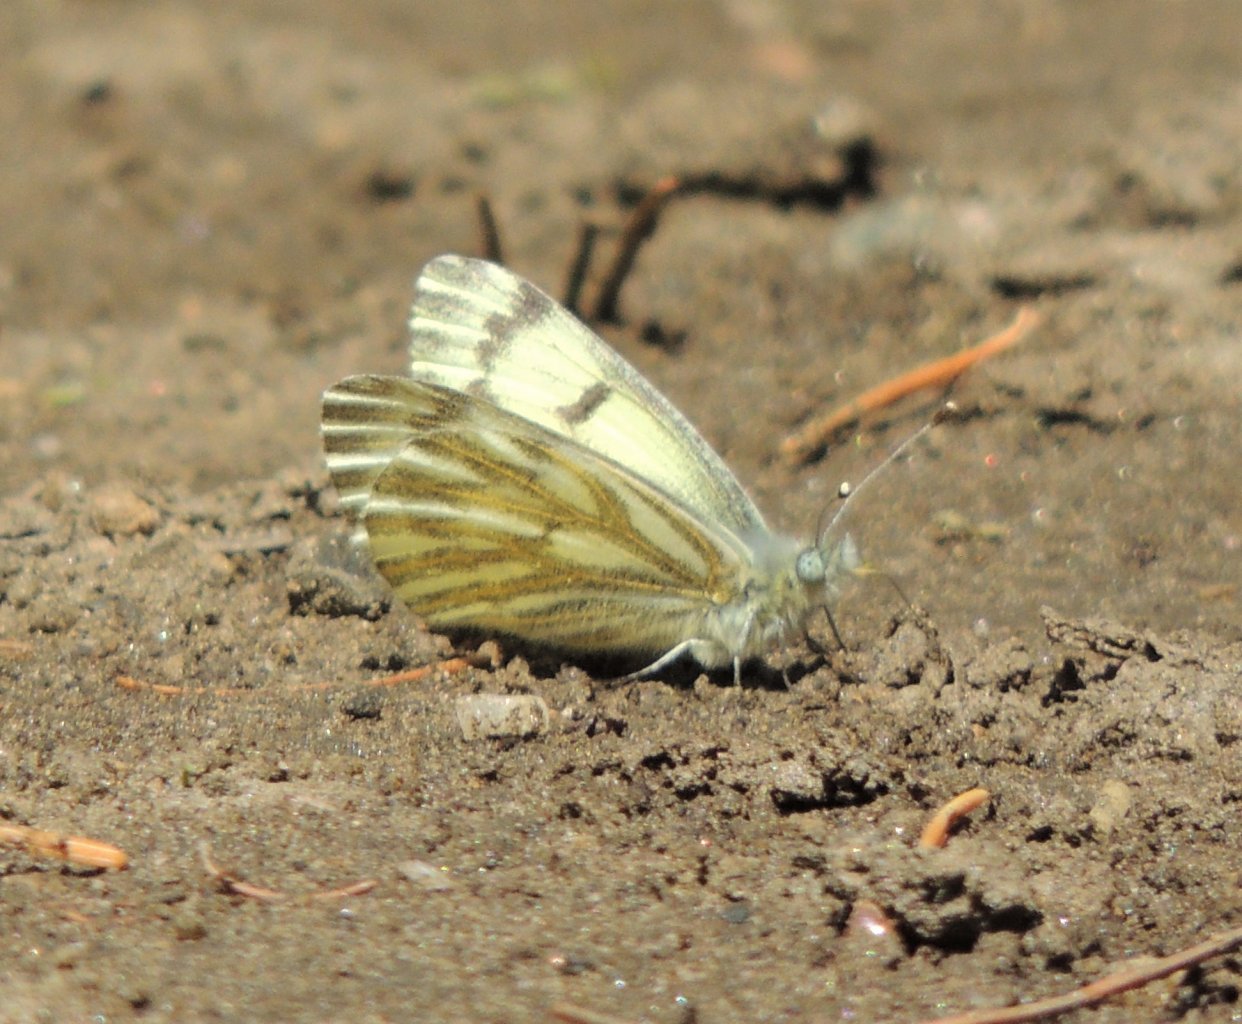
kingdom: Animalia
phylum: Arthropoda
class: Insecta
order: Lepidoptera
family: Pieridae
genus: Pontia
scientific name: Pontia sisymbrii
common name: Spring White
